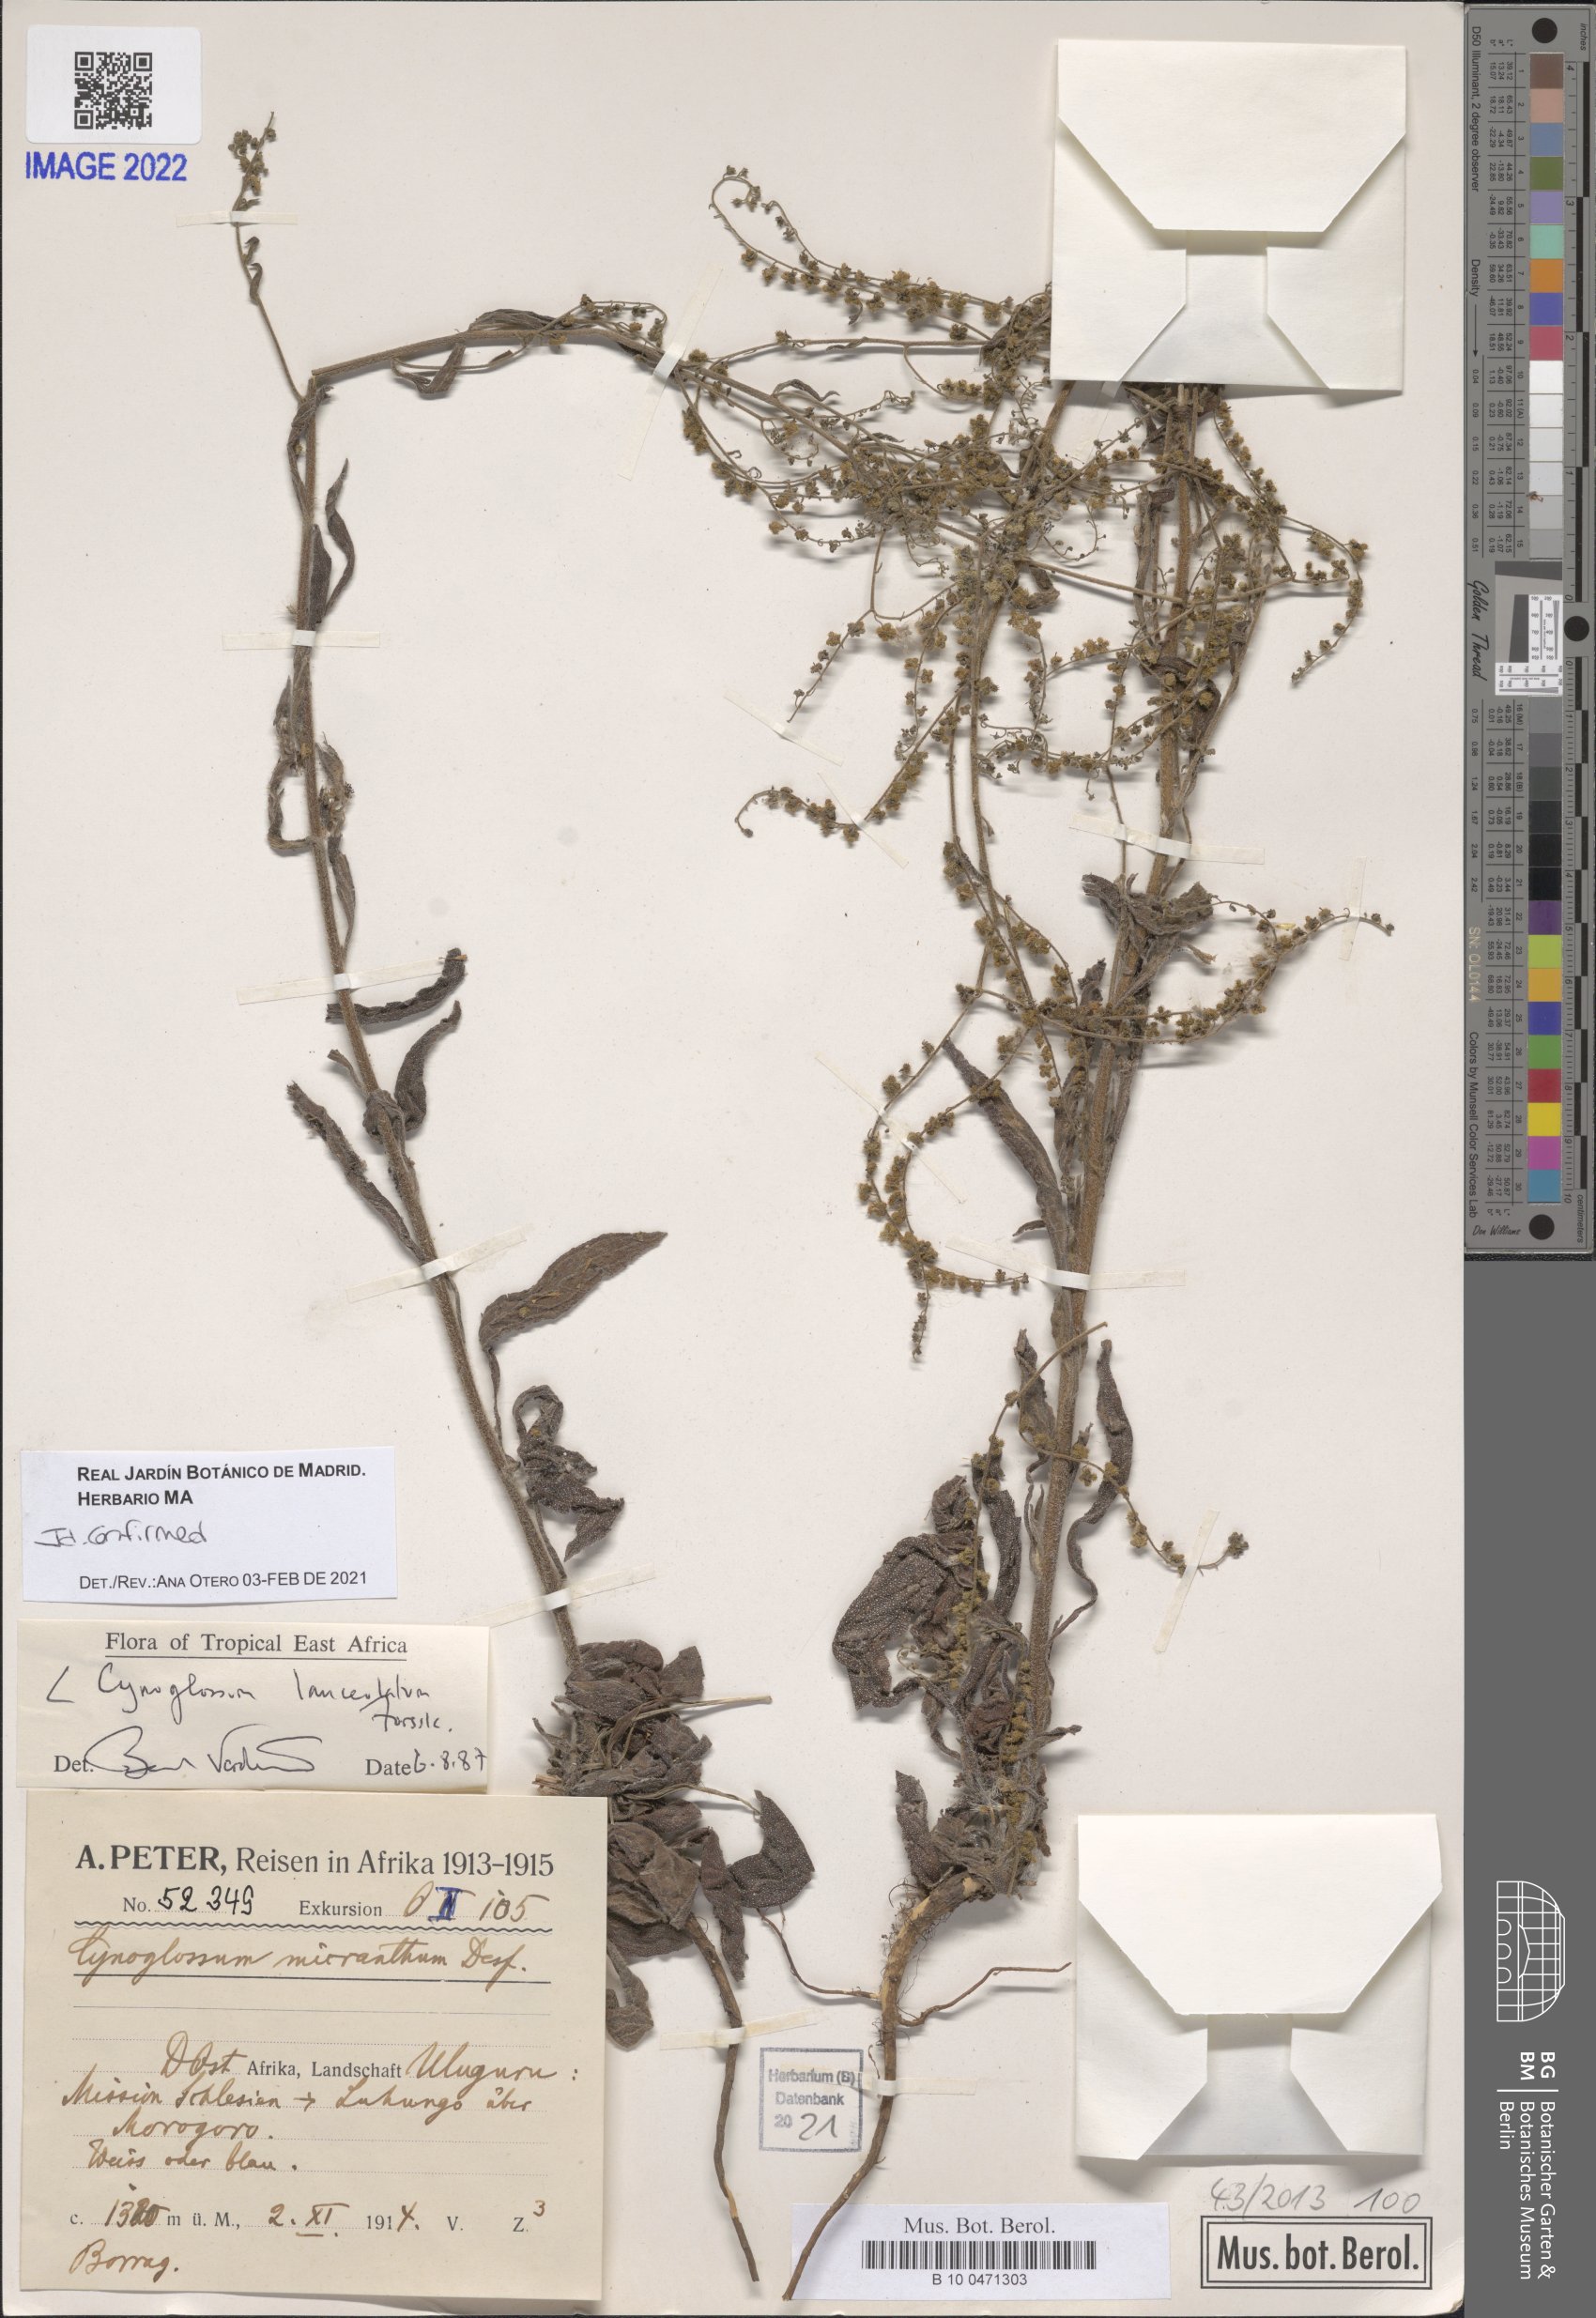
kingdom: Plantae
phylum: Tracheophyta
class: Magnoliopsida
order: Boraginales
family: Boraginaceae
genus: Paracynoglossum
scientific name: Paracynoglossum lanceolatum
